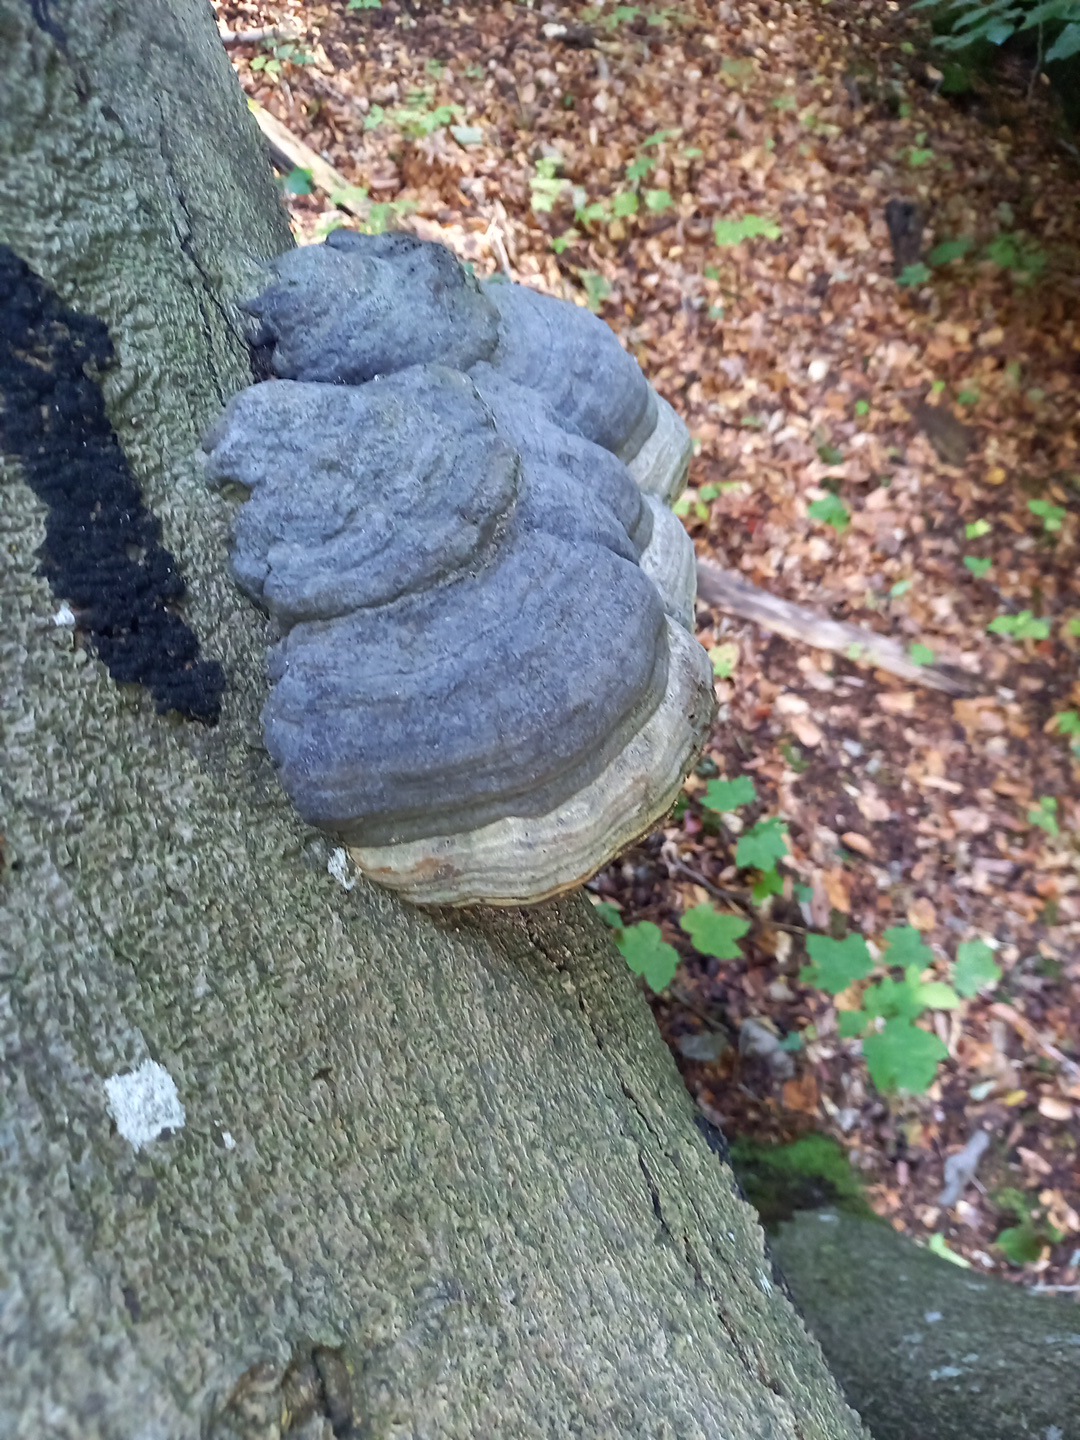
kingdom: Fungi
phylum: Basidiomycota
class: Agaricomycetes
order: Polyporales
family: Polyporaceae
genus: Fomes
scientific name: Fomes fomentarius
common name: tøndersvamp
